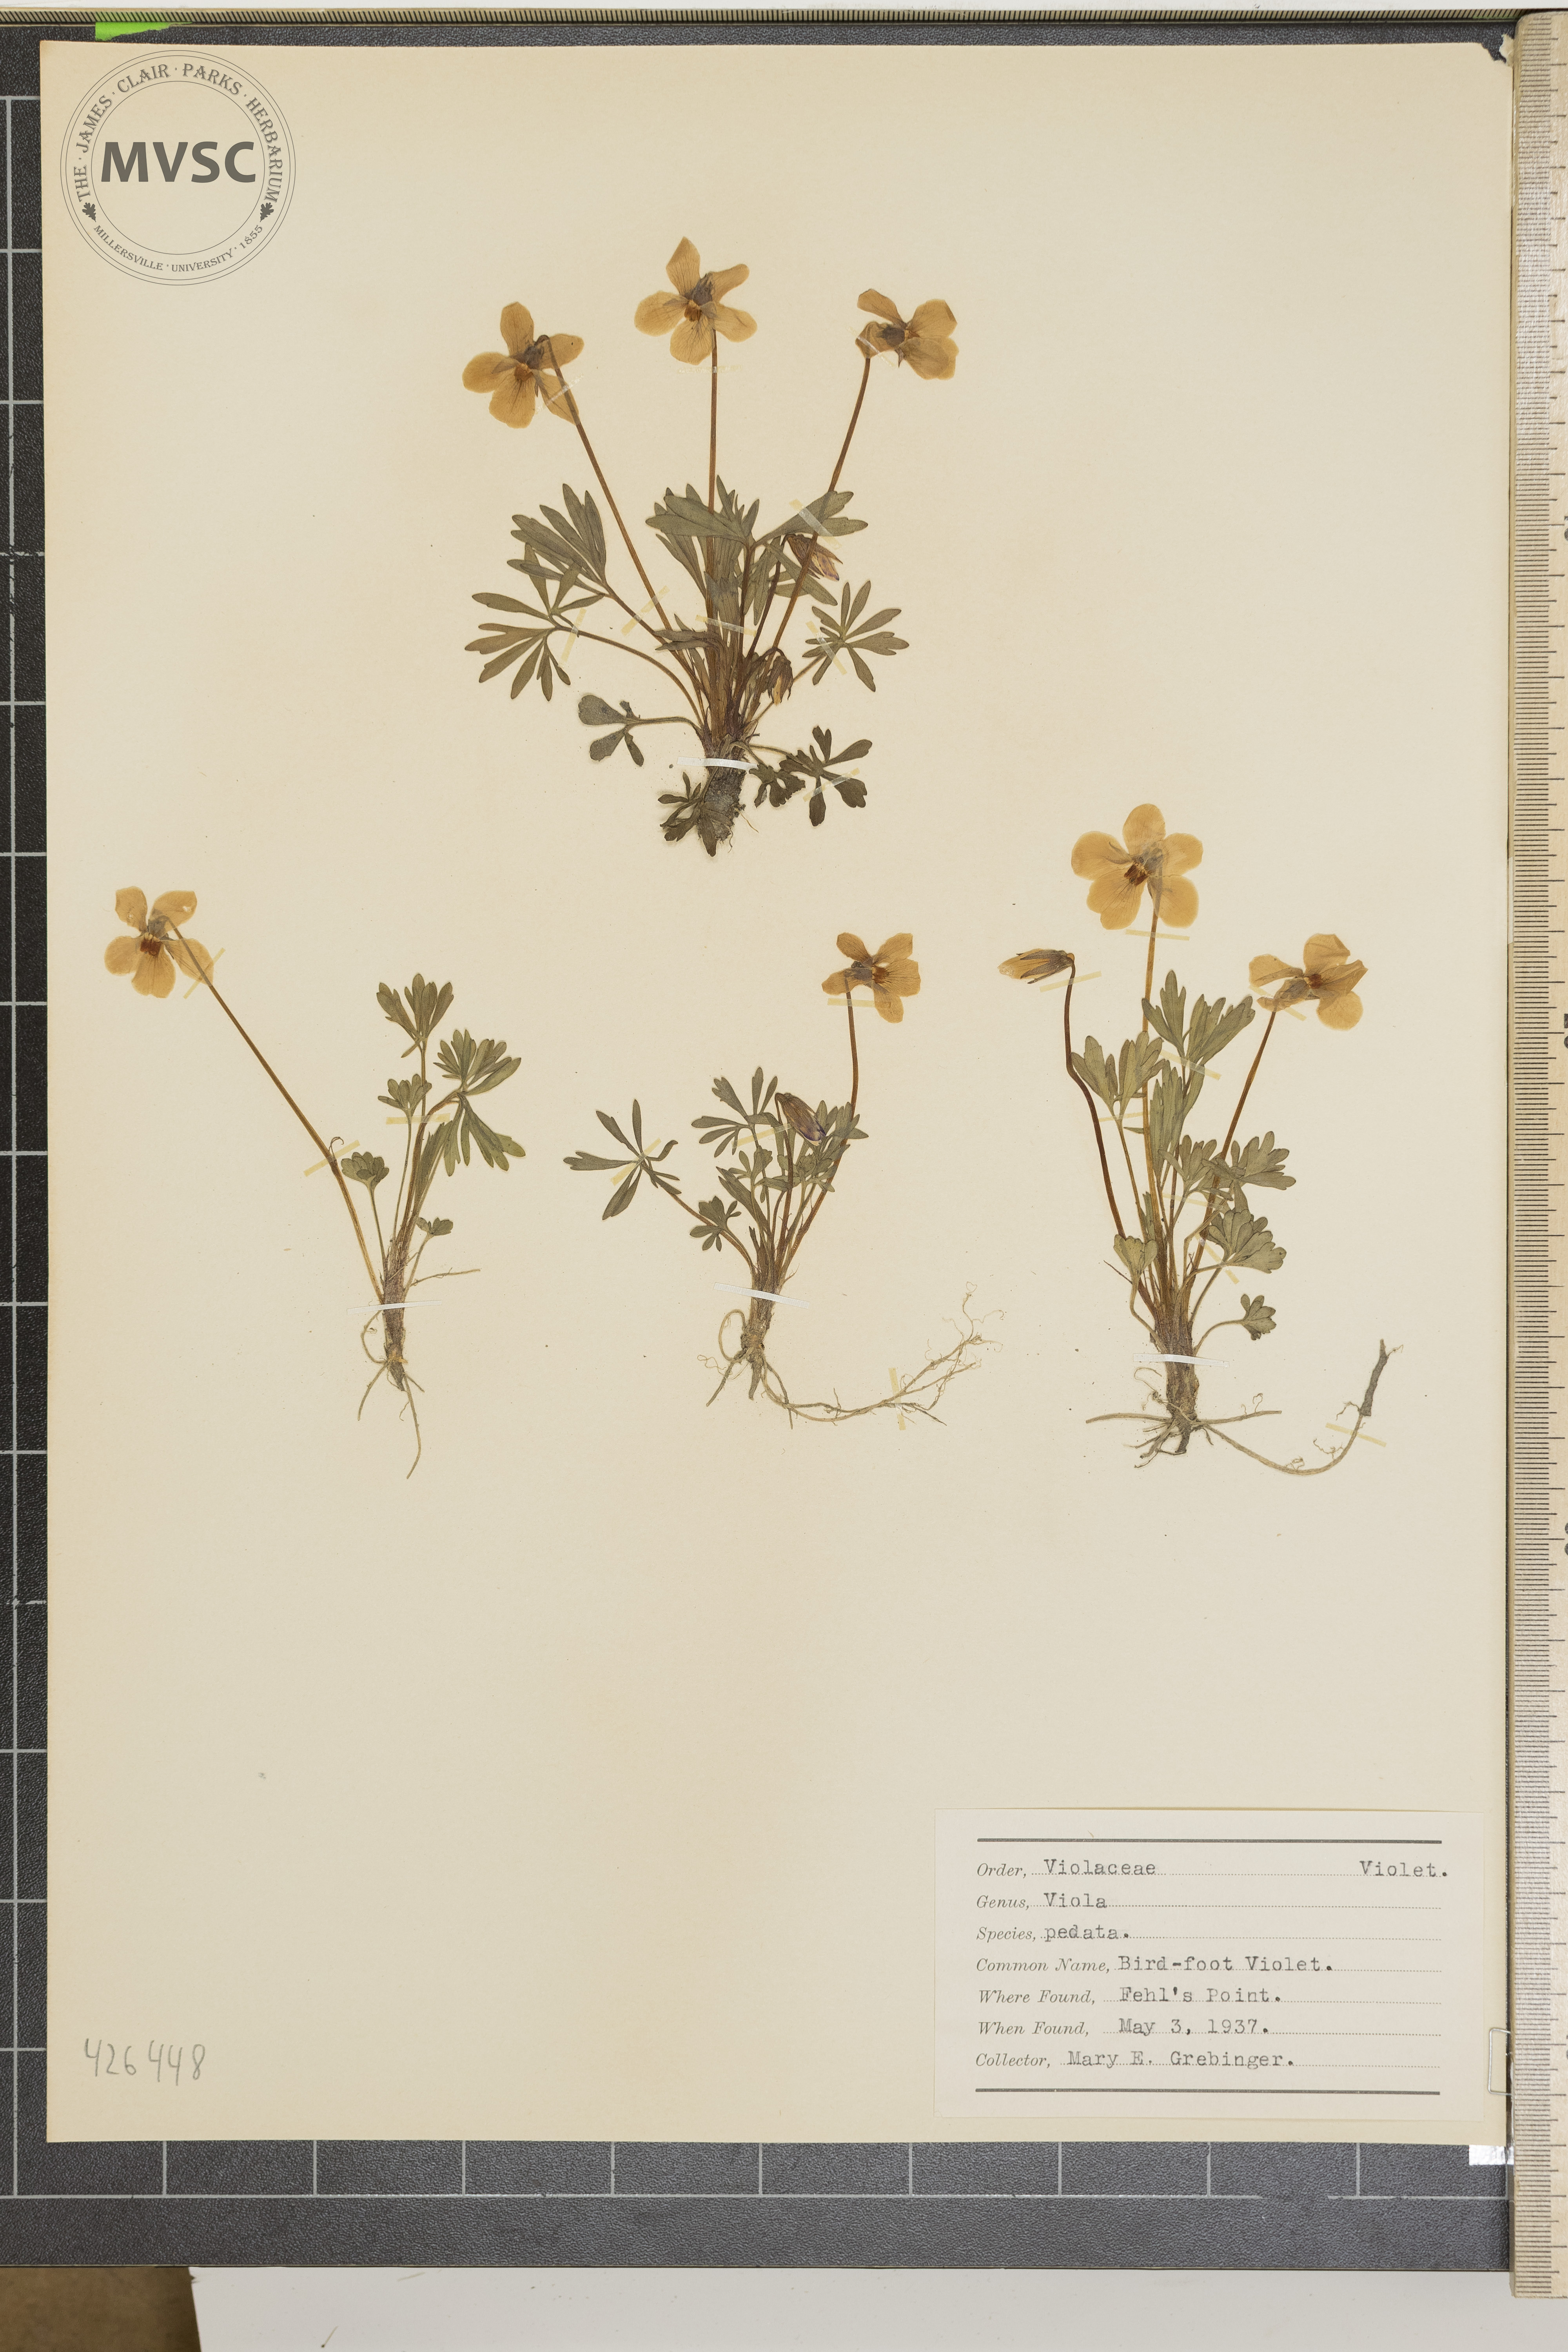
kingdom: Plantae
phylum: Tracheophyta
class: Magnoliopsida
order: Malpighiales
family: Violaceae
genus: Viola
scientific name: Viola pedata
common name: Bird-foot violet
